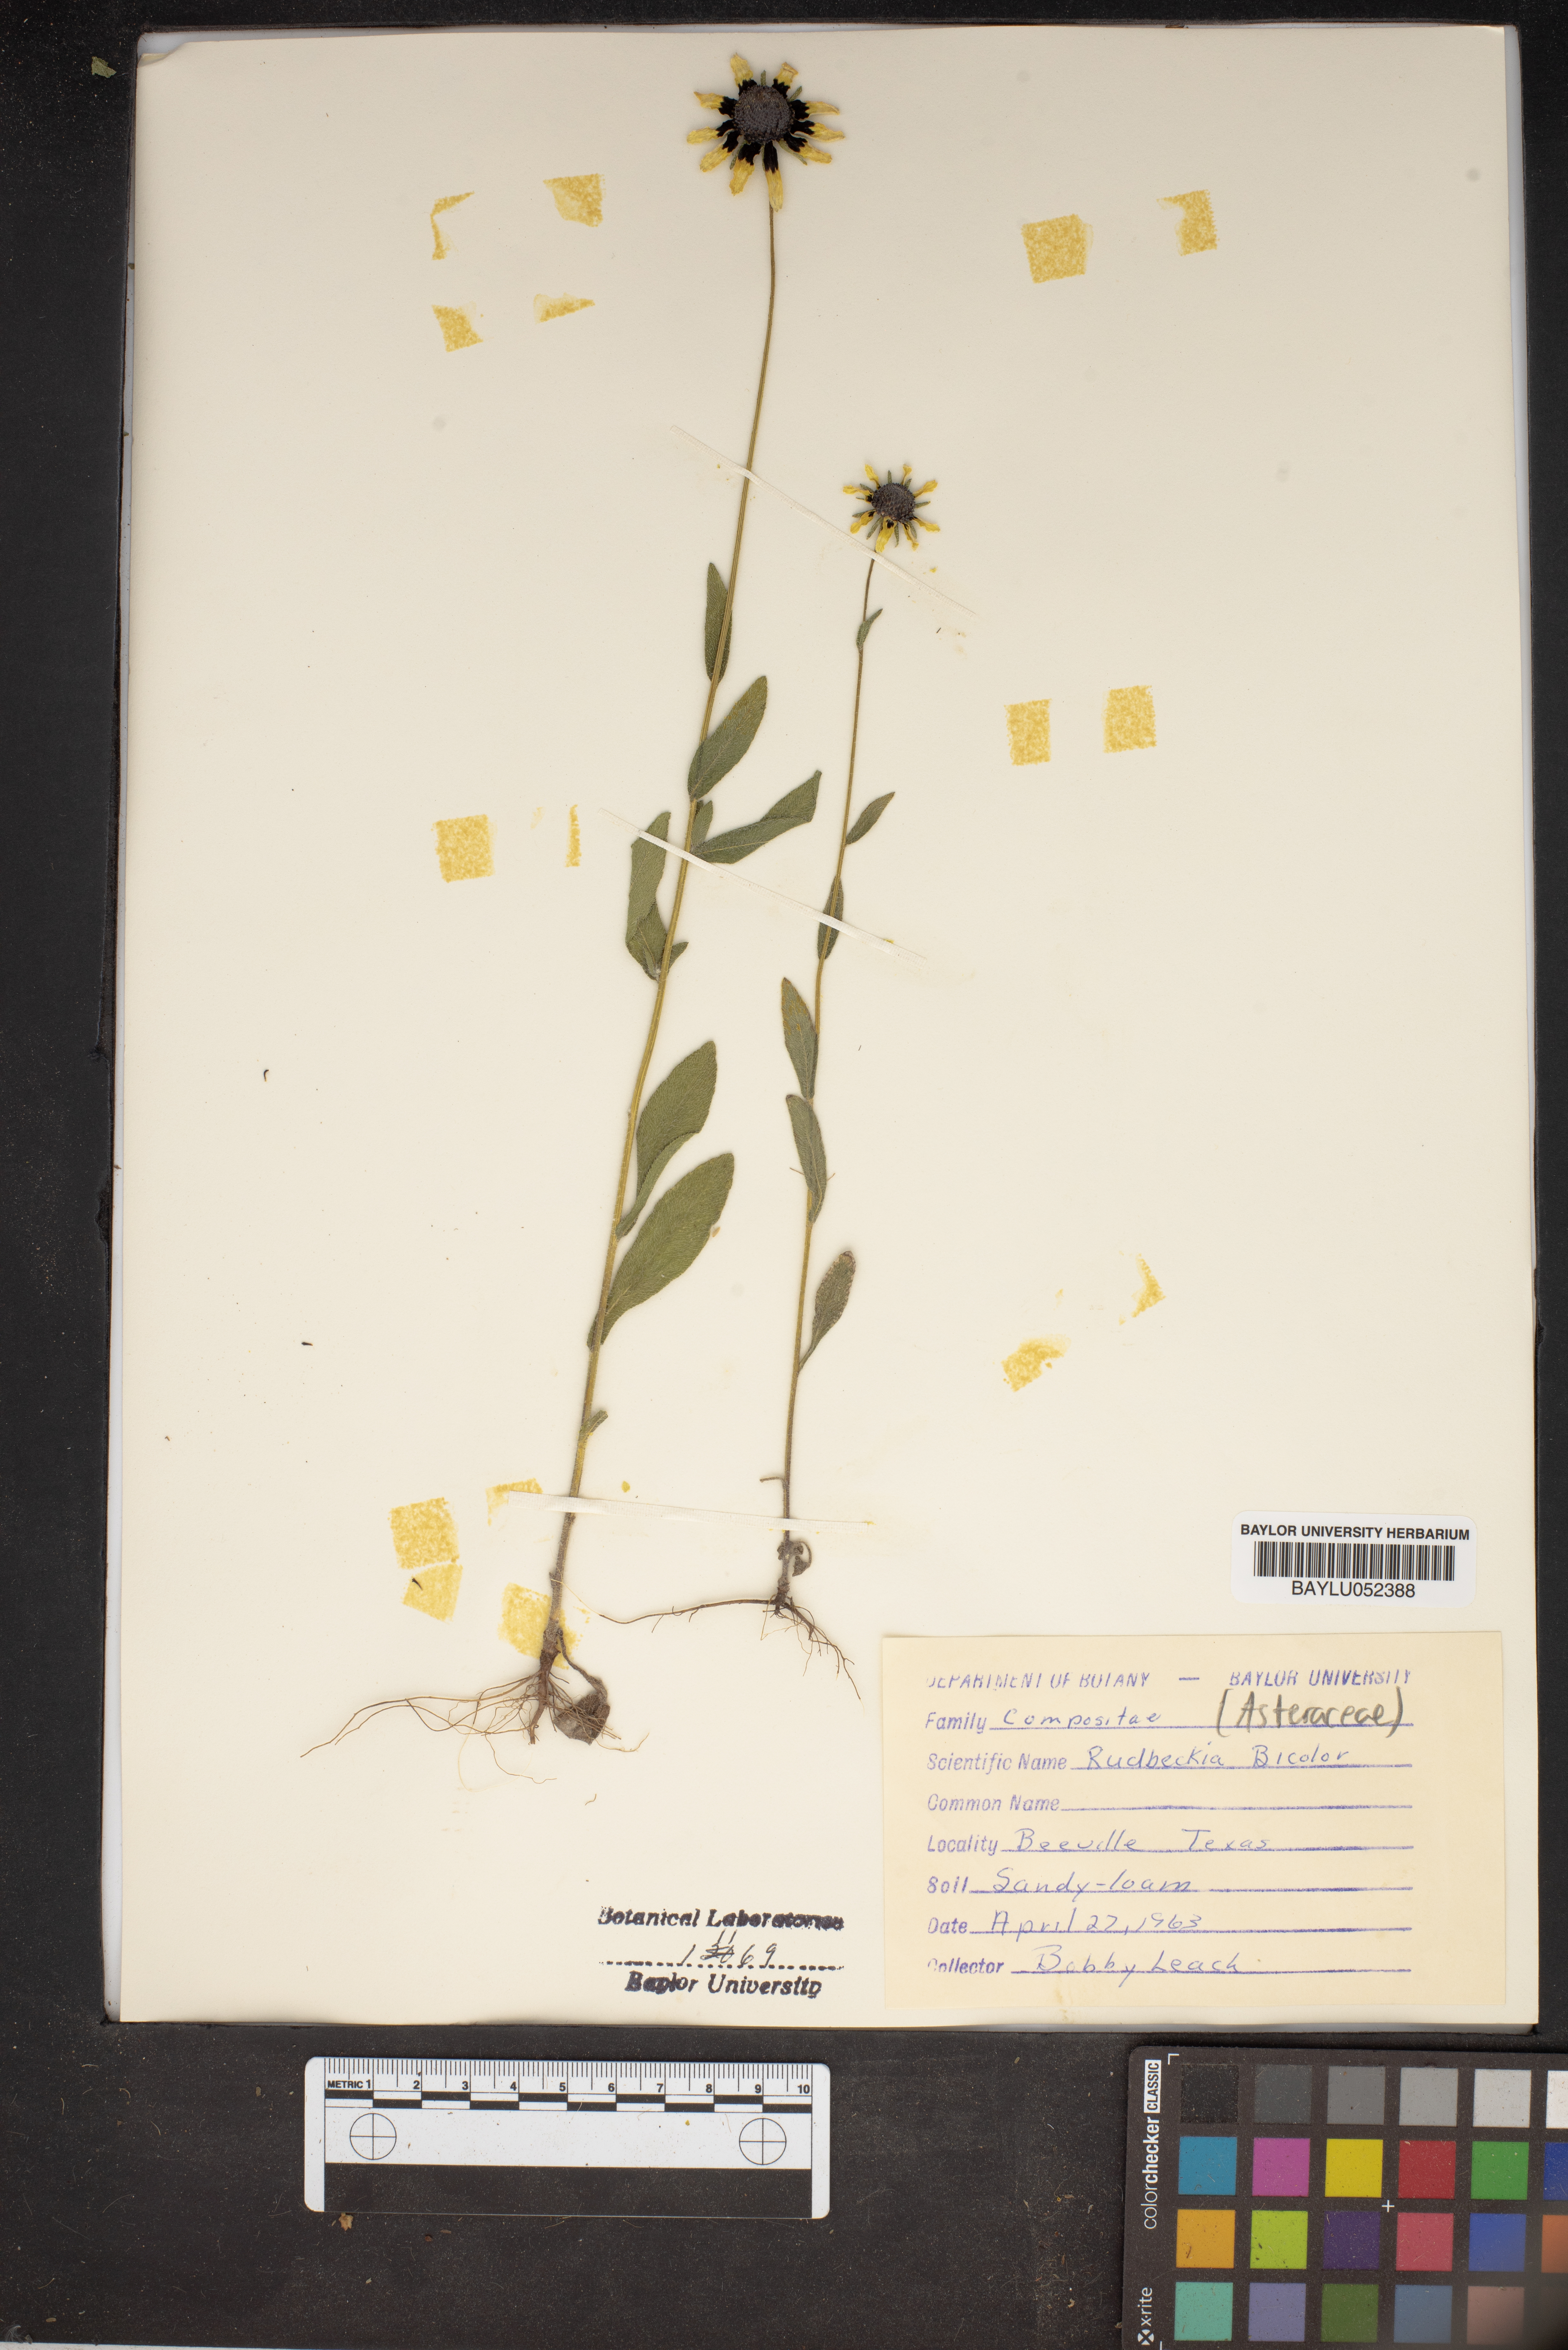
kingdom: Plantae
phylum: Tracheophyta
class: Magnoliopsida
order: Asterales
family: Asteraceae
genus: Rudbeckia
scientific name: Rudbeckia hirta
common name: Black-eyed-susan
